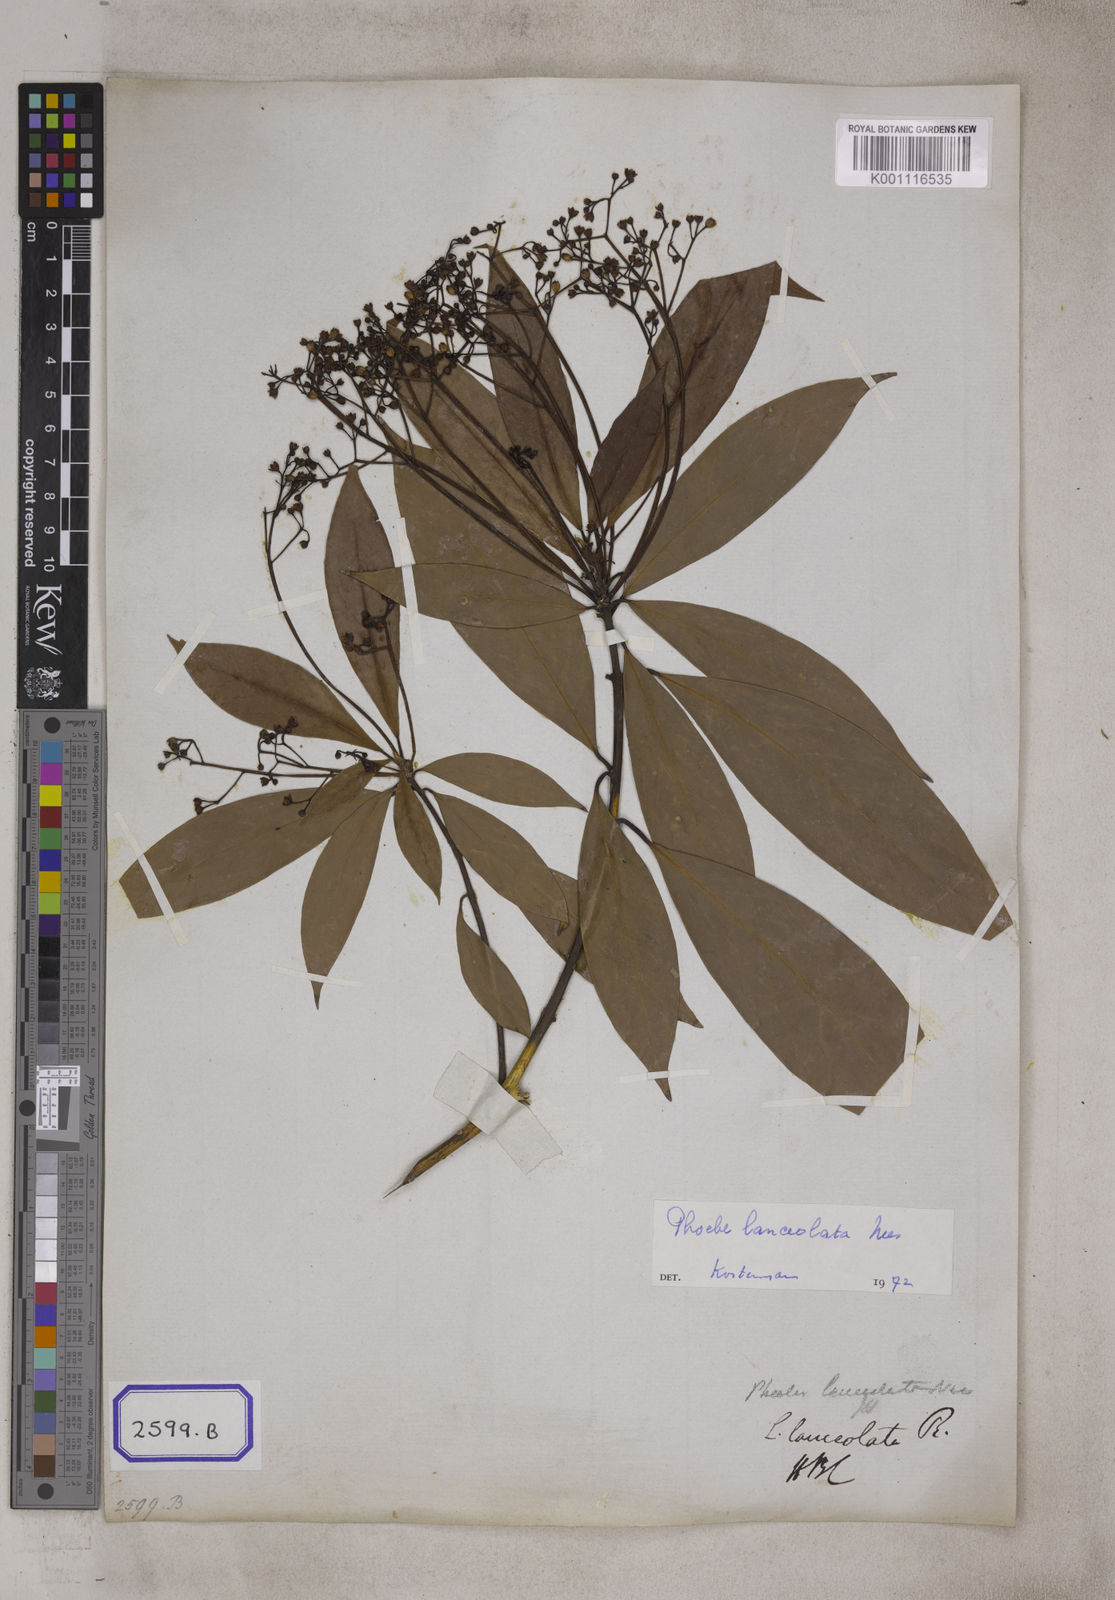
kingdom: Plantae
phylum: Tracheophyta
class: Magnoliopsida
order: Laurales
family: Lauraceae
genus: Laurus
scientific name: Laurus
